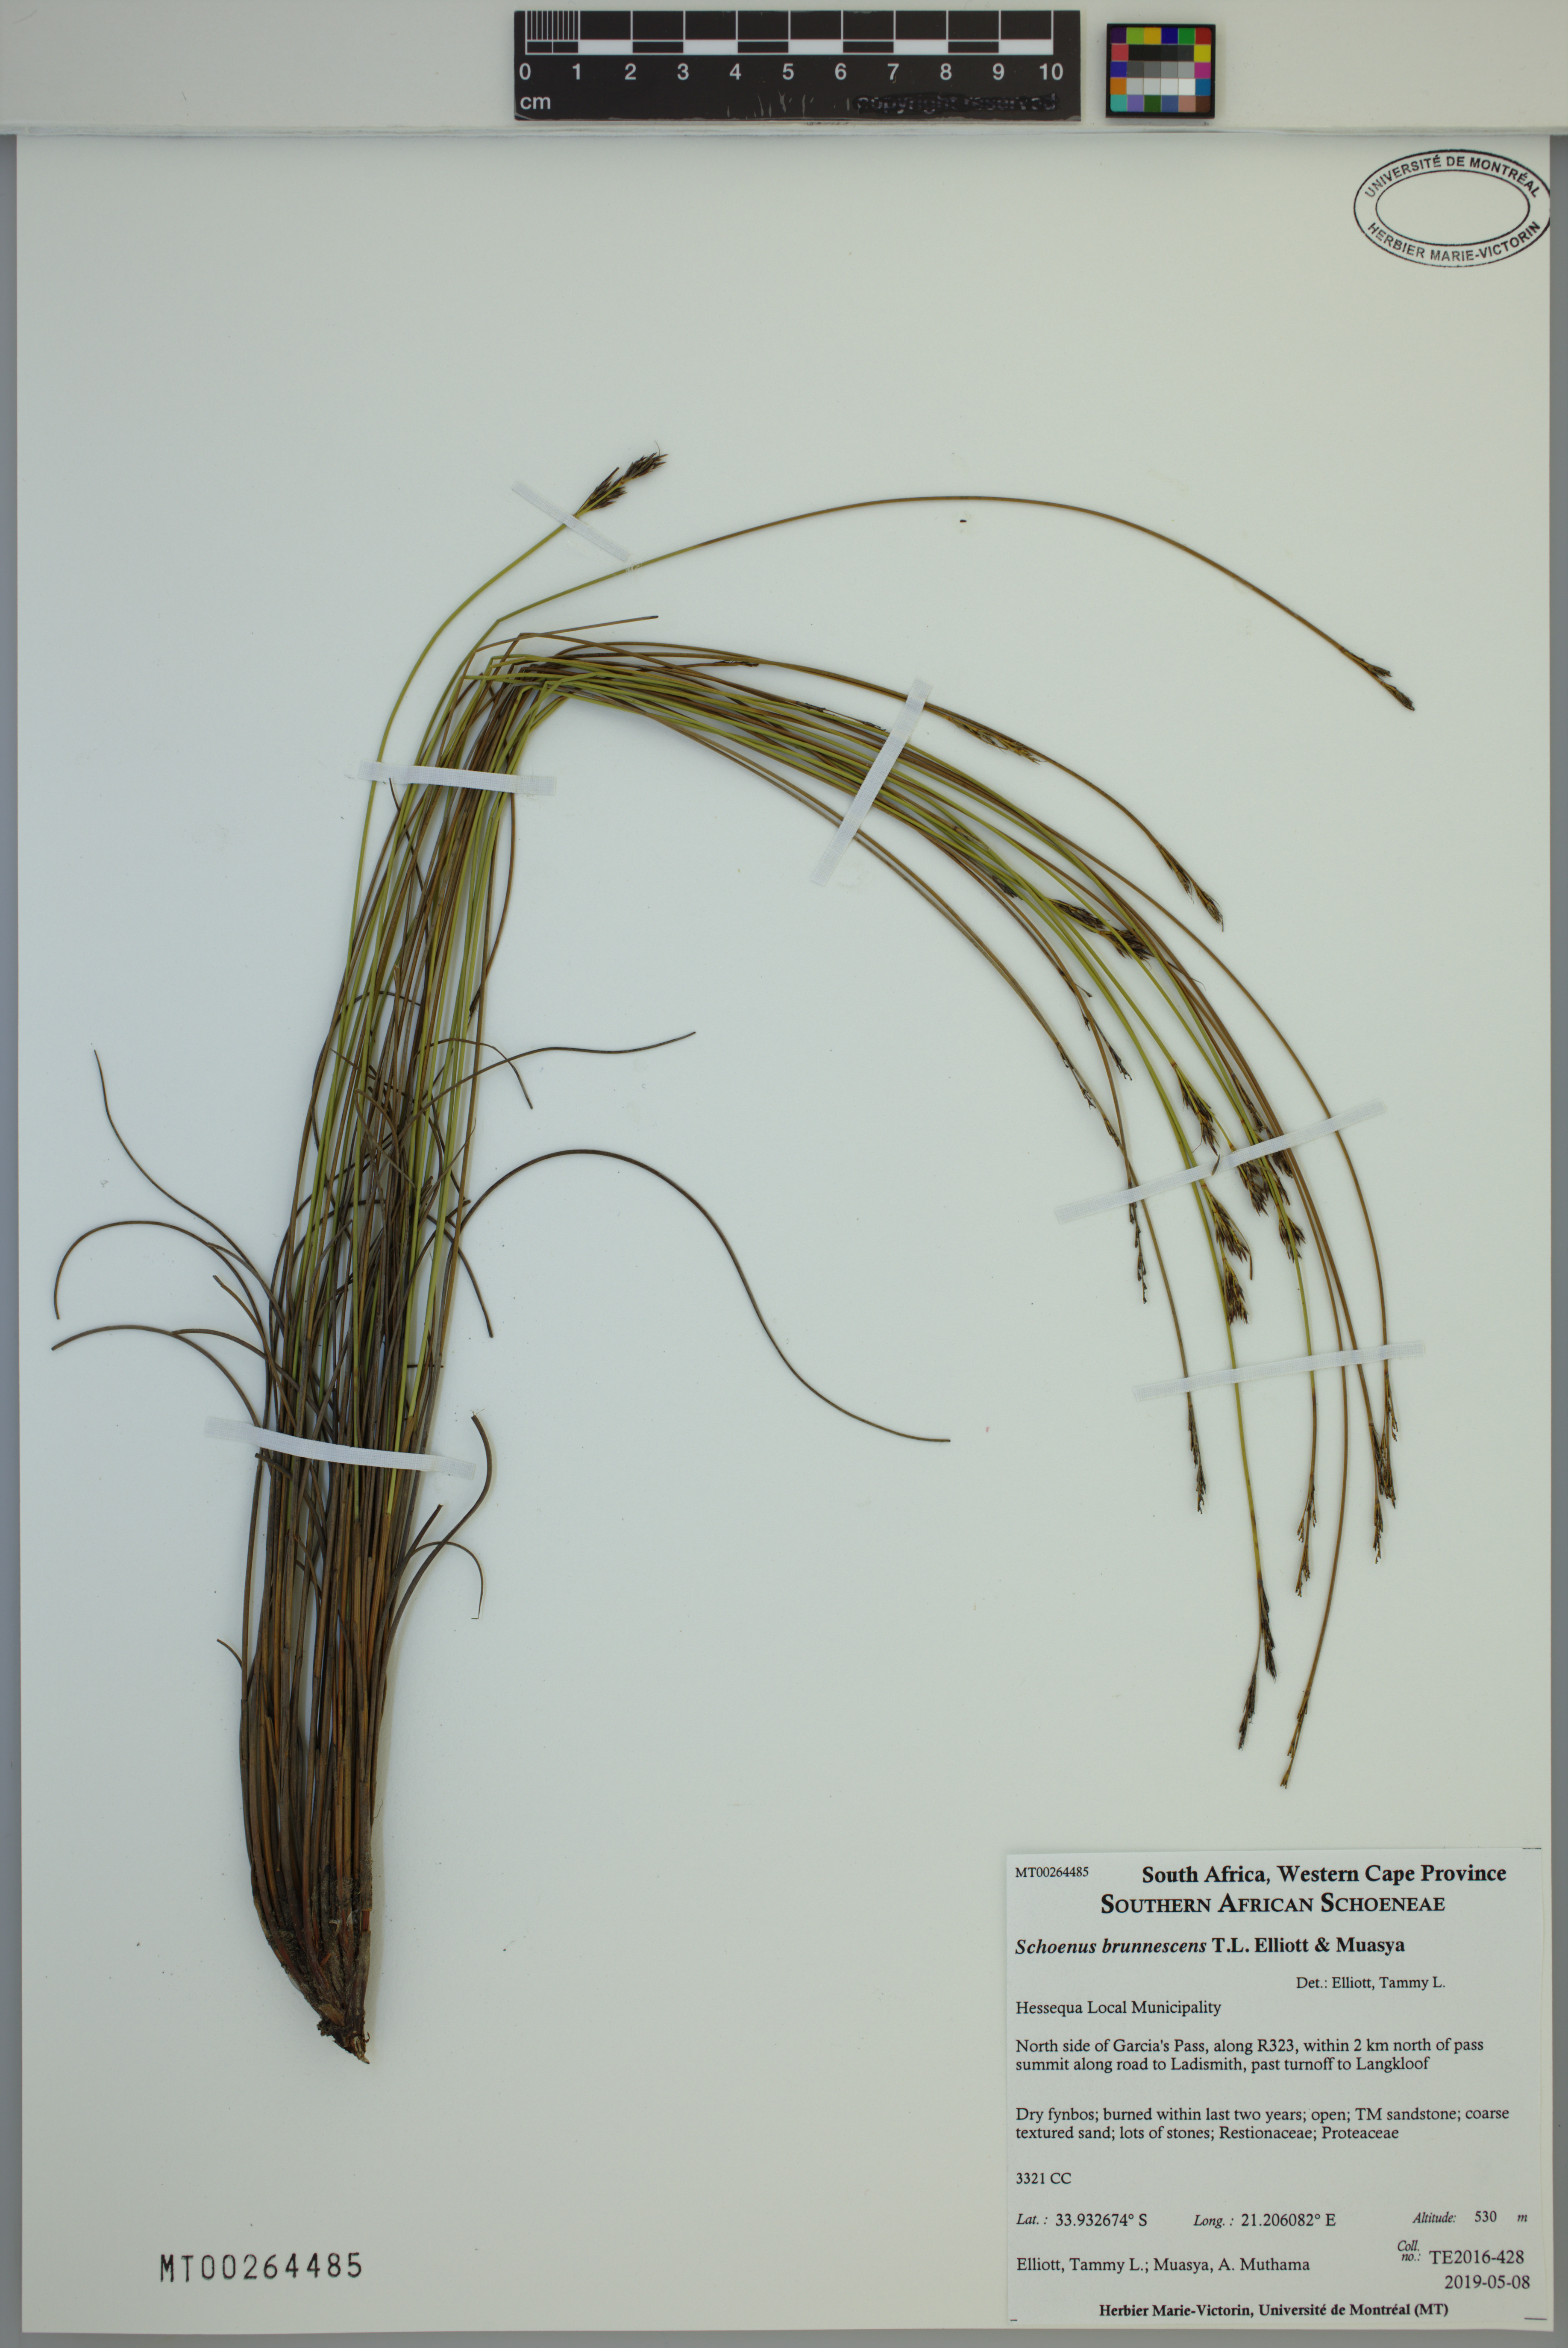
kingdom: Plantae
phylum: Tracheophyta
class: Liliopsida
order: Poales
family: Cyperaceae
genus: Schoenus
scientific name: Schoenus brunnescens
